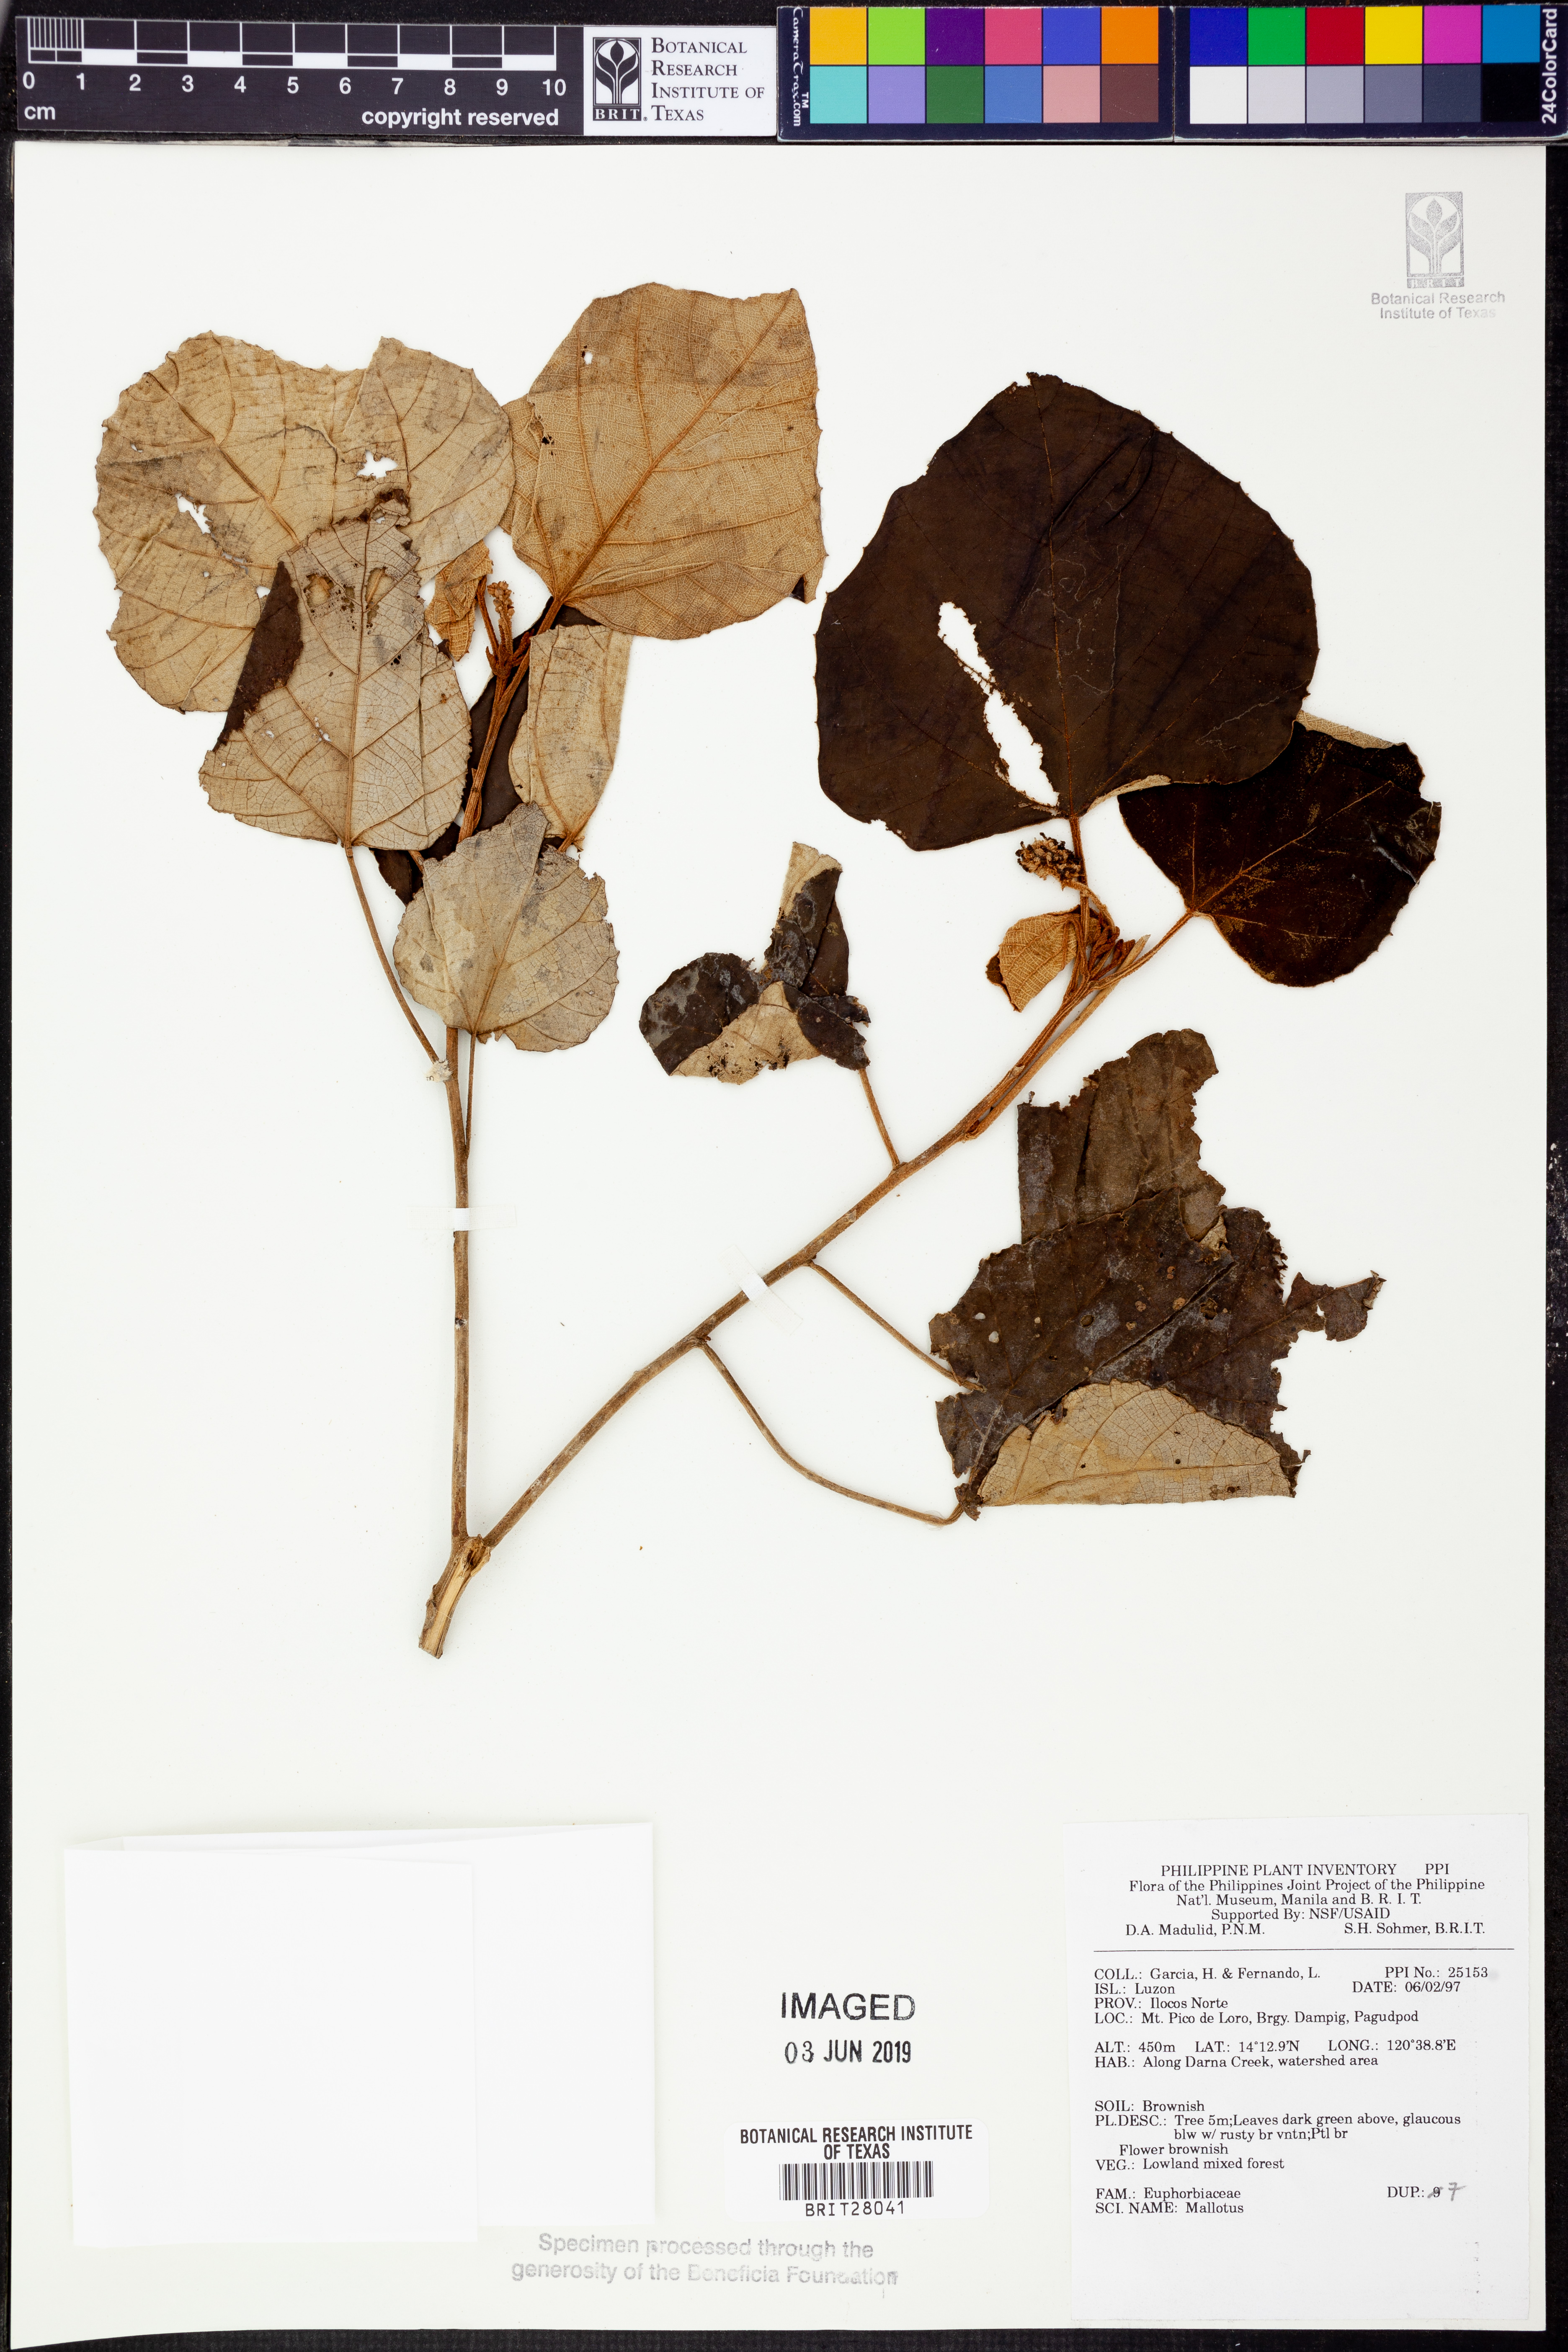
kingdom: Plantae
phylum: Tracheophyta
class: Magnoliopsida
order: Malpighiales
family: Euphorbiaceae
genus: Mallotus
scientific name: Mallotus
